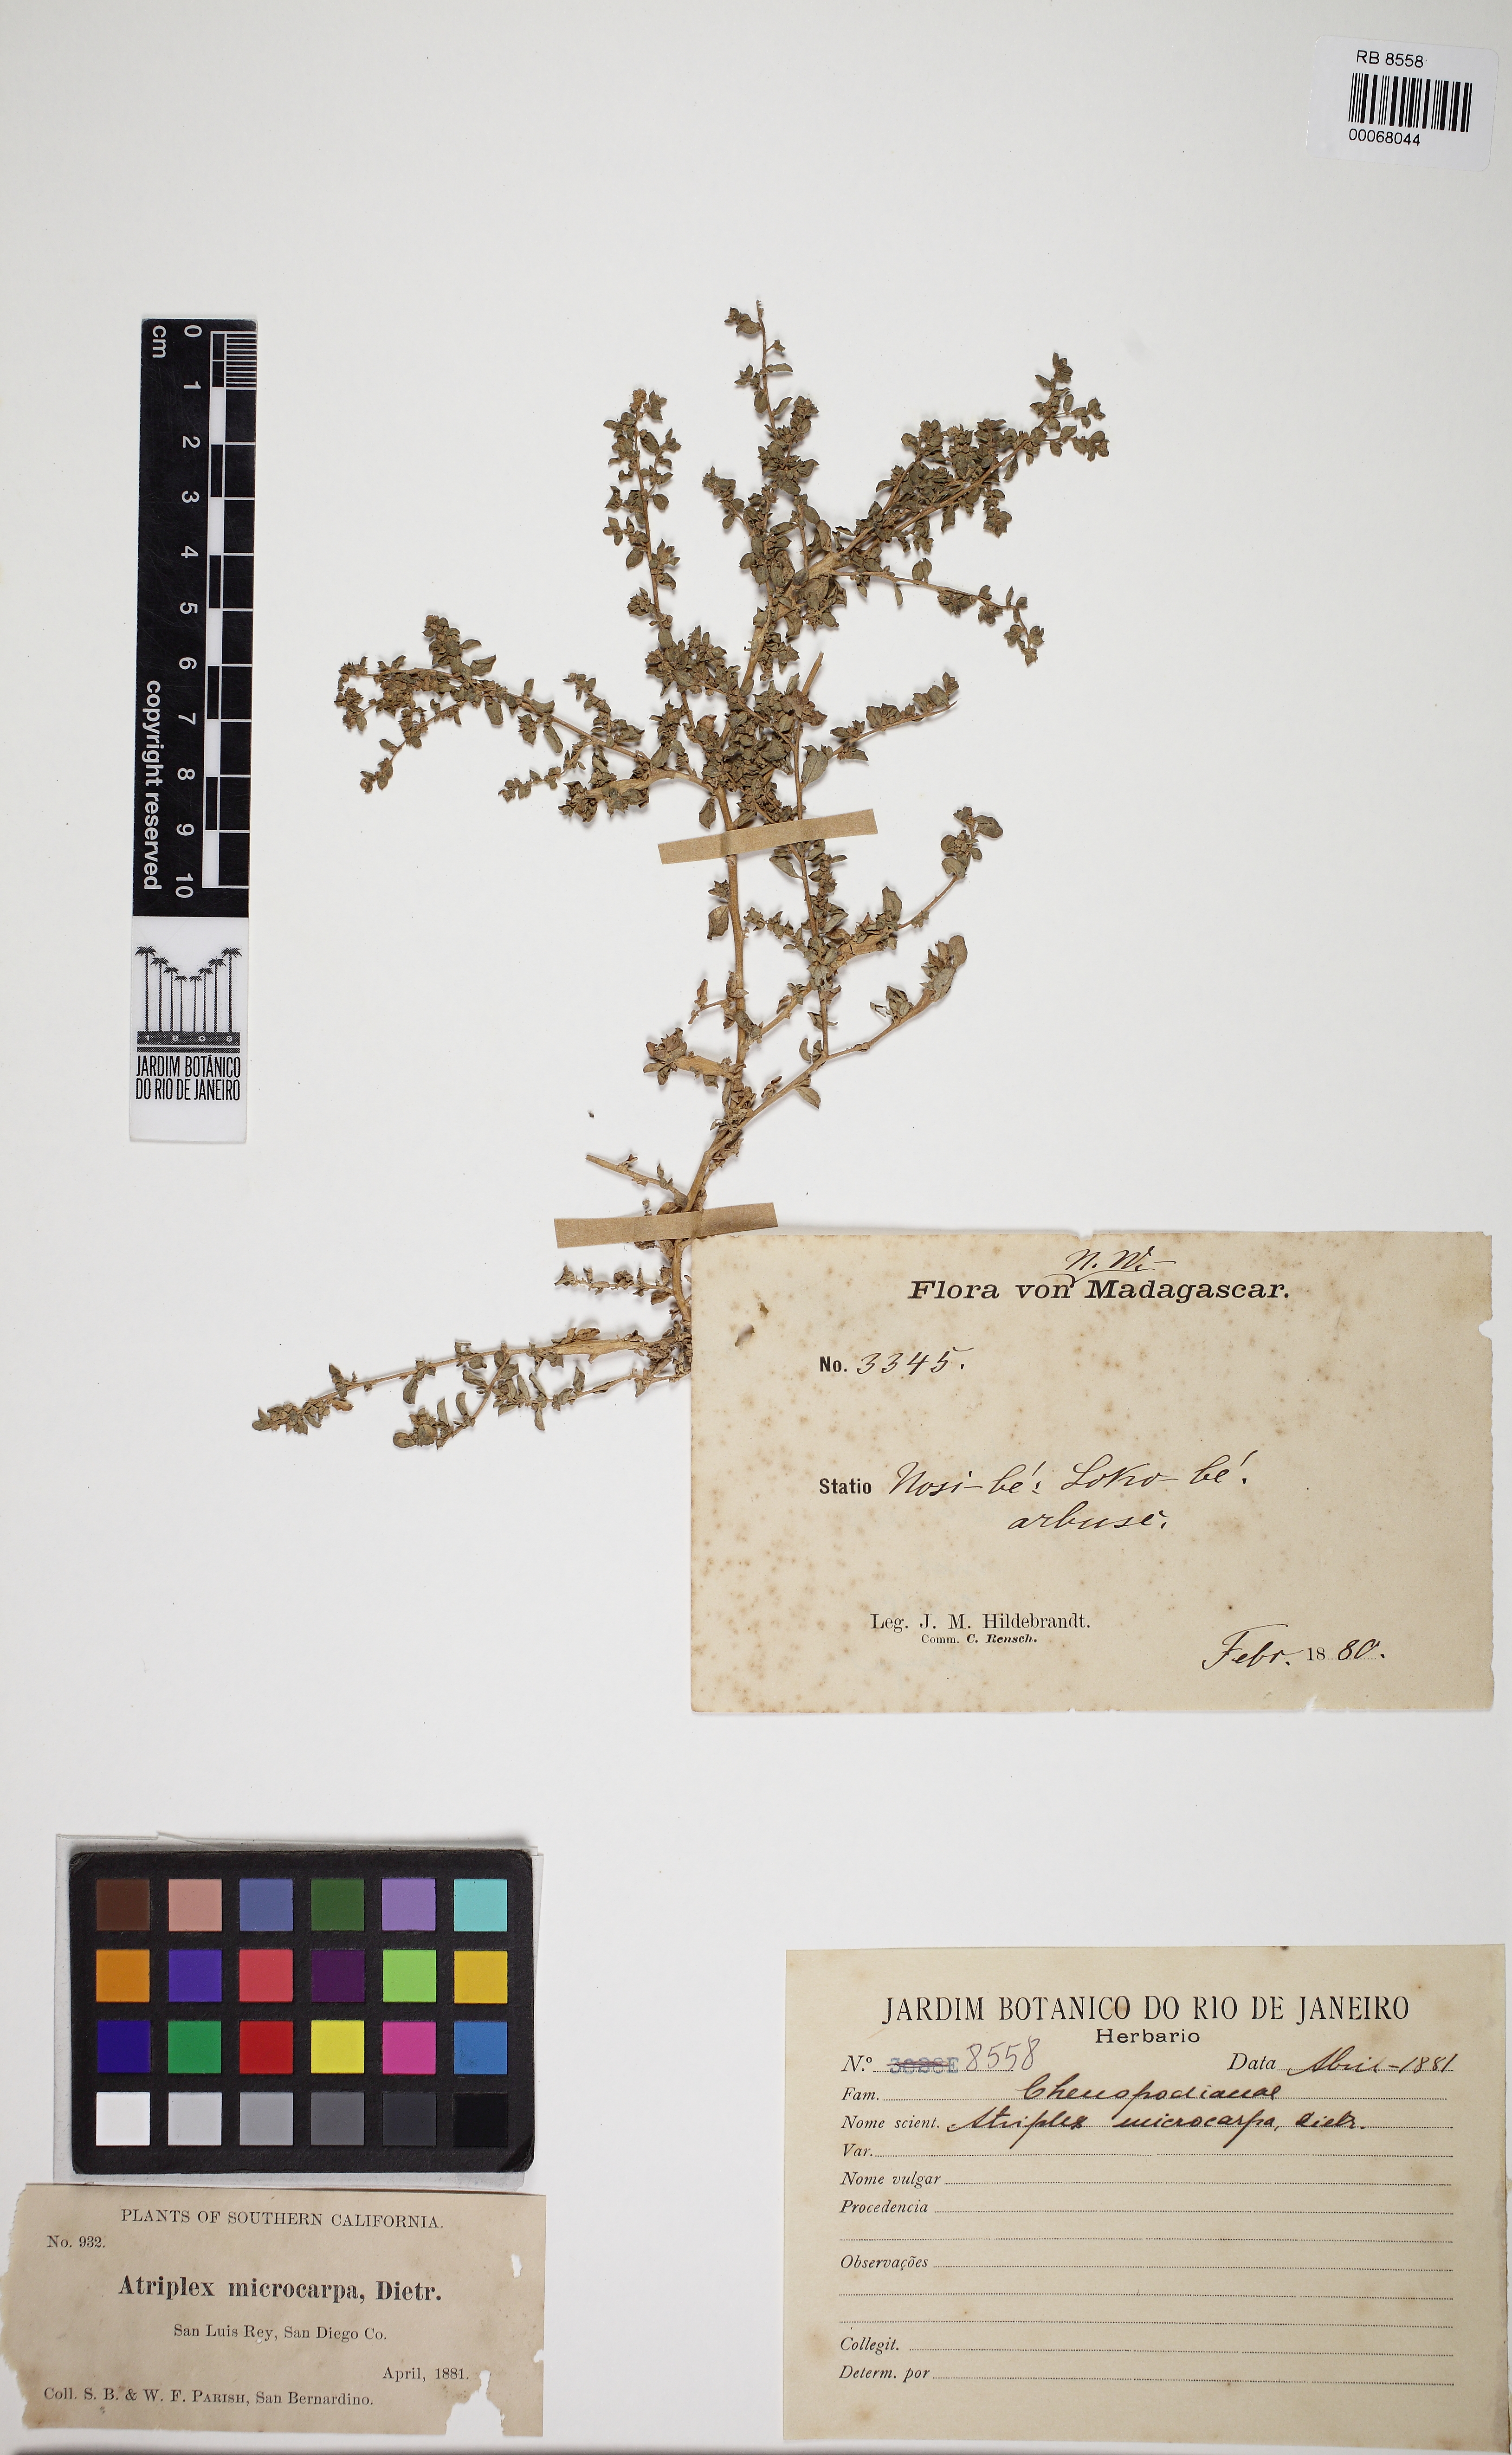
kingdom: Plantae
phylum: Tracheophyta
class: Magnoliopsida
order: Caryophyllales
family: Amaranthaceae
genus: Atriplex
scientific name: Atriplex infrequens
